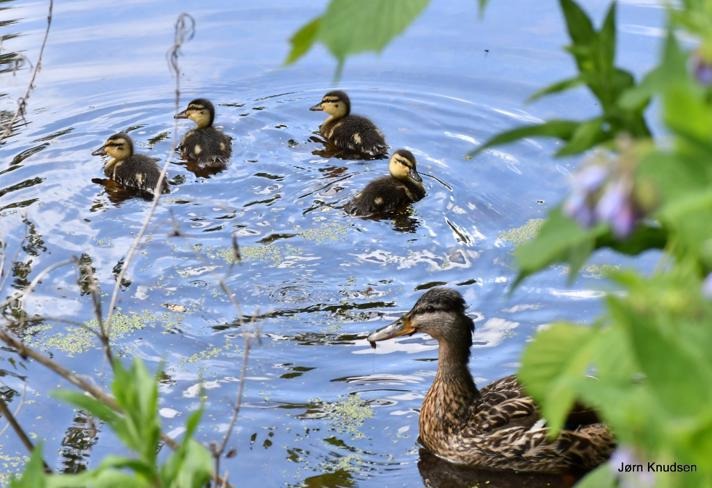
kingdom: Animalia
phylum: Chordata
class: Aves
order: Anseriformes
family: Anatidae
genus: Anas
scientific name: Anas platyrhynchos
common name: Gråand
